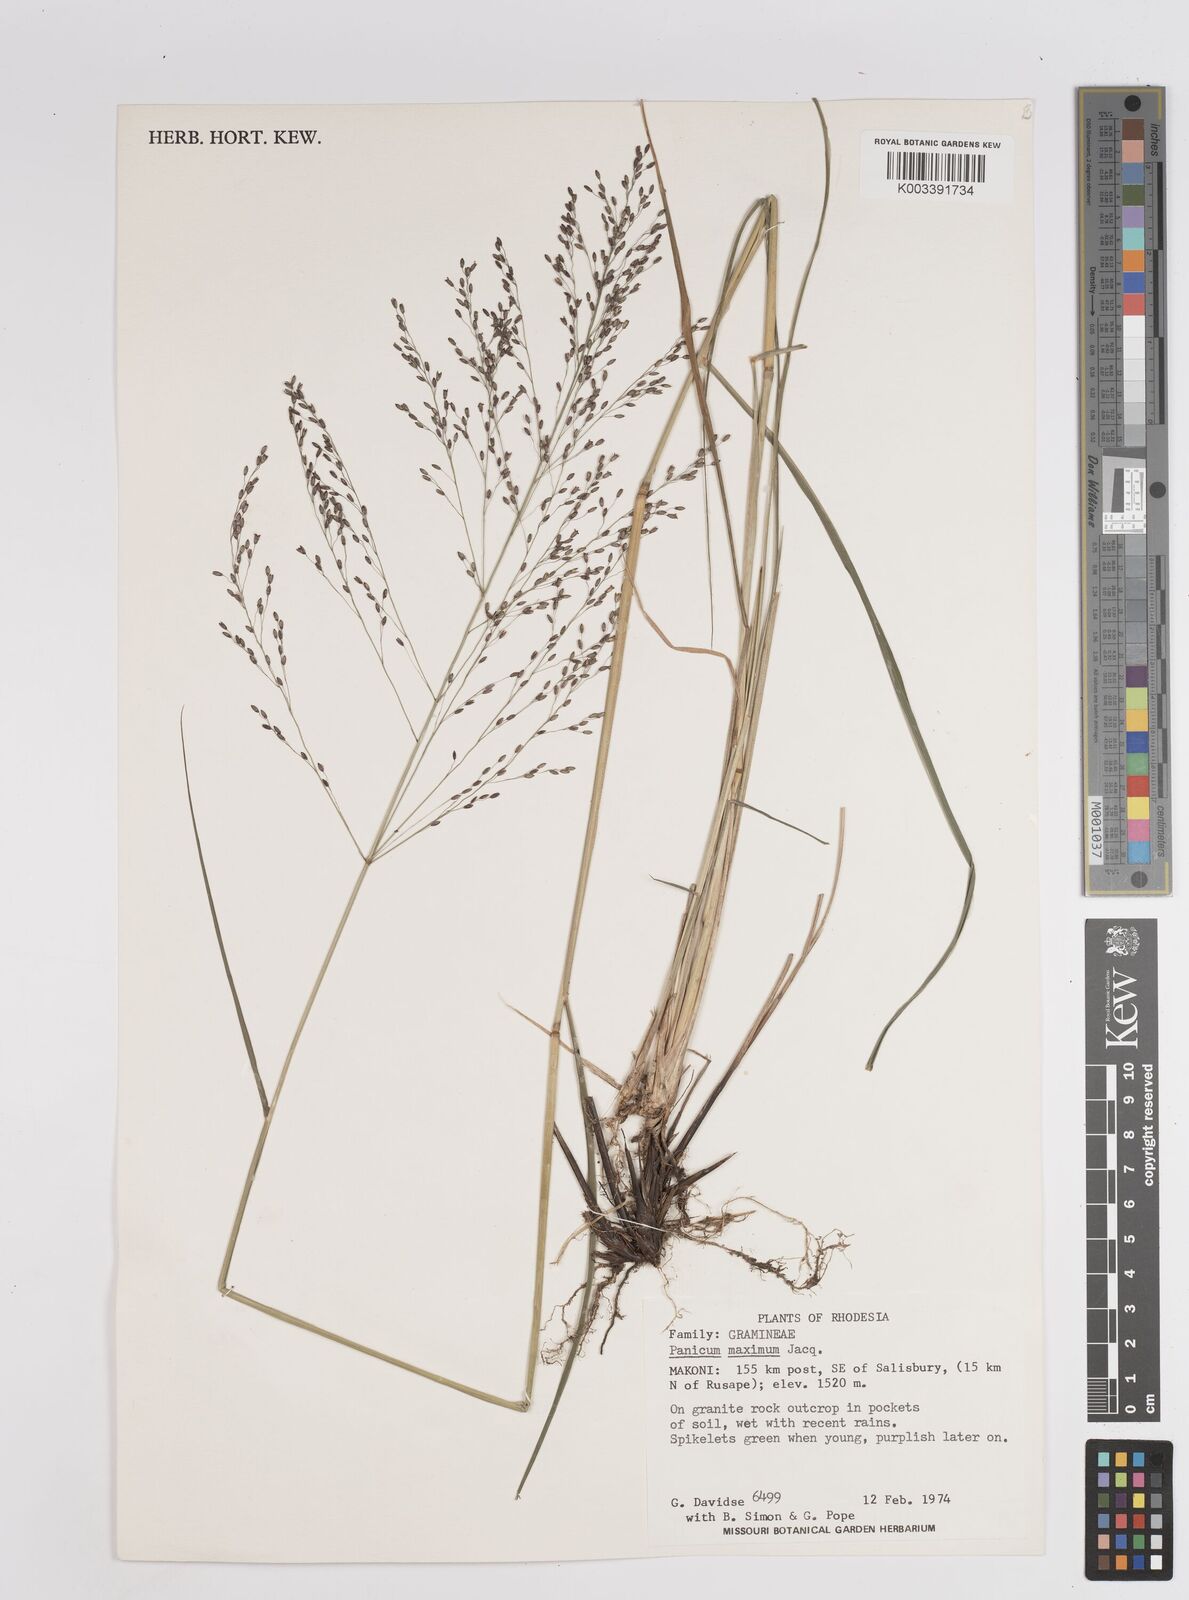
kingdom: Plantae
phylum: Tracheophyta
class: Liliopsida
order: Poales
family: Poaceae
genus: Megathyrsus
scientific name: Megathyrsus maximus
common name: Guineagrass
